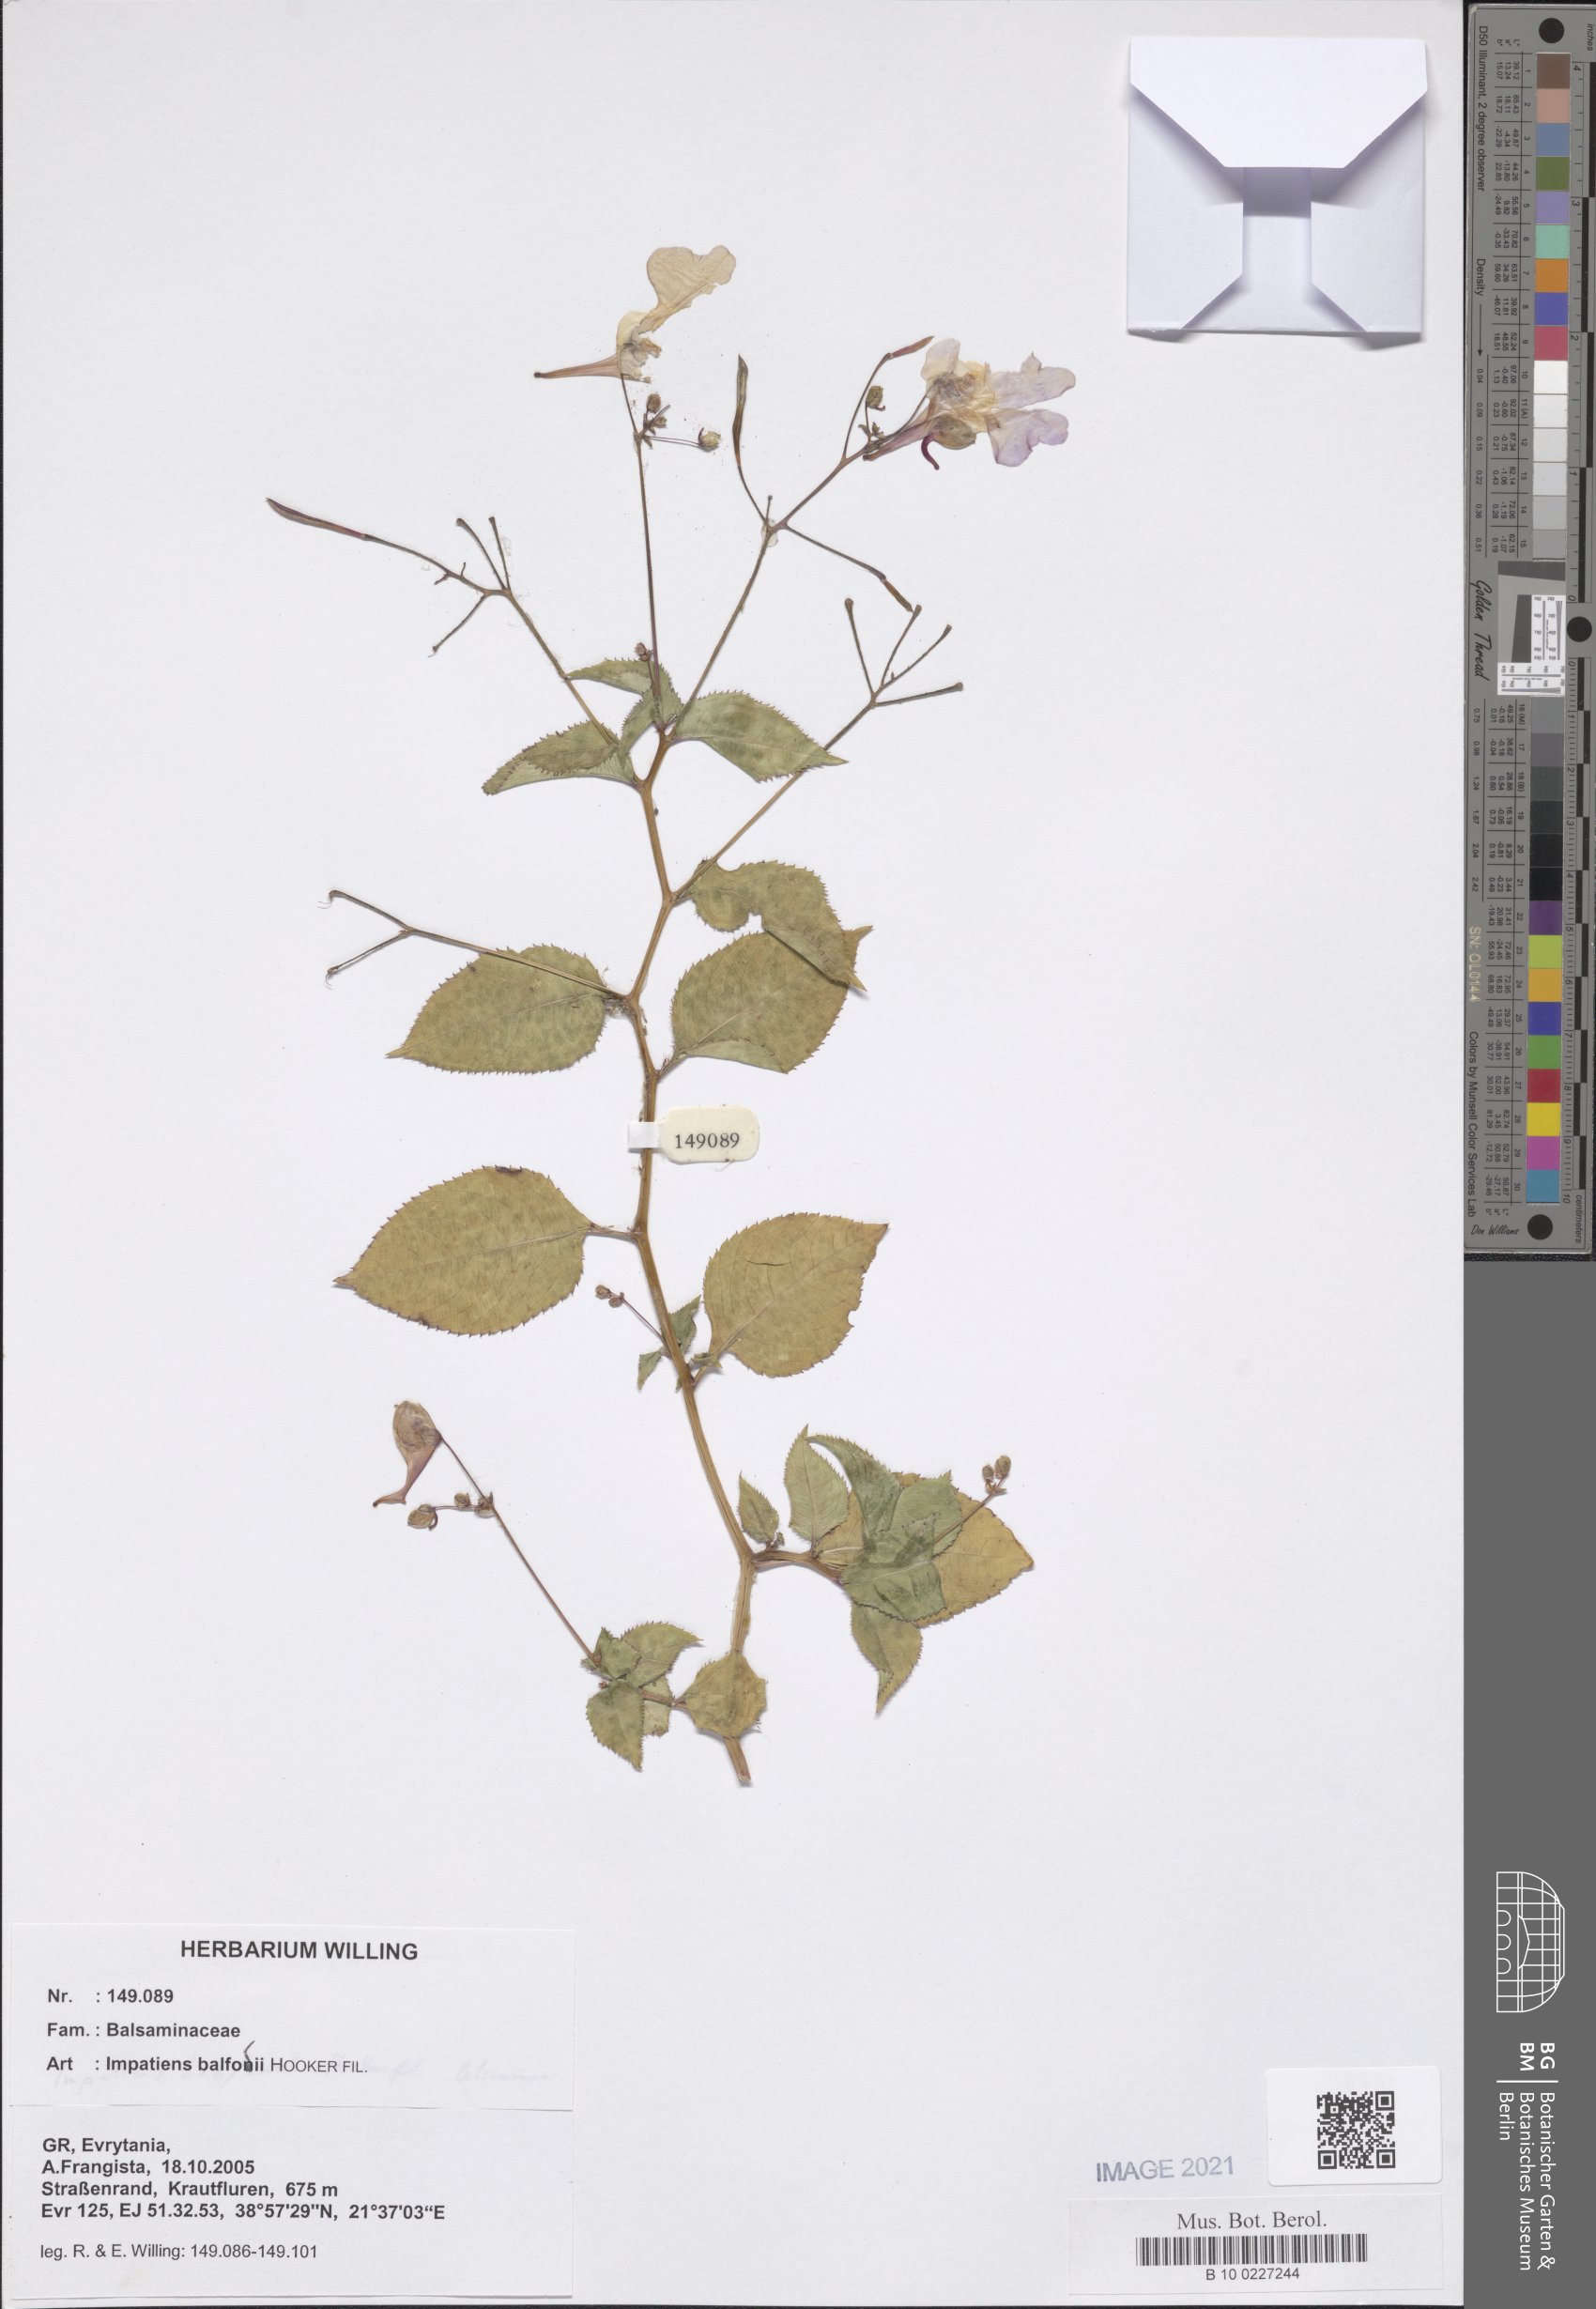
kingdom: Plantae
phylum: Tracheophyta
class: Liliopsida
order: Poales
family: Poaceae
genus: Poa
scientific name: Poa cenisia
